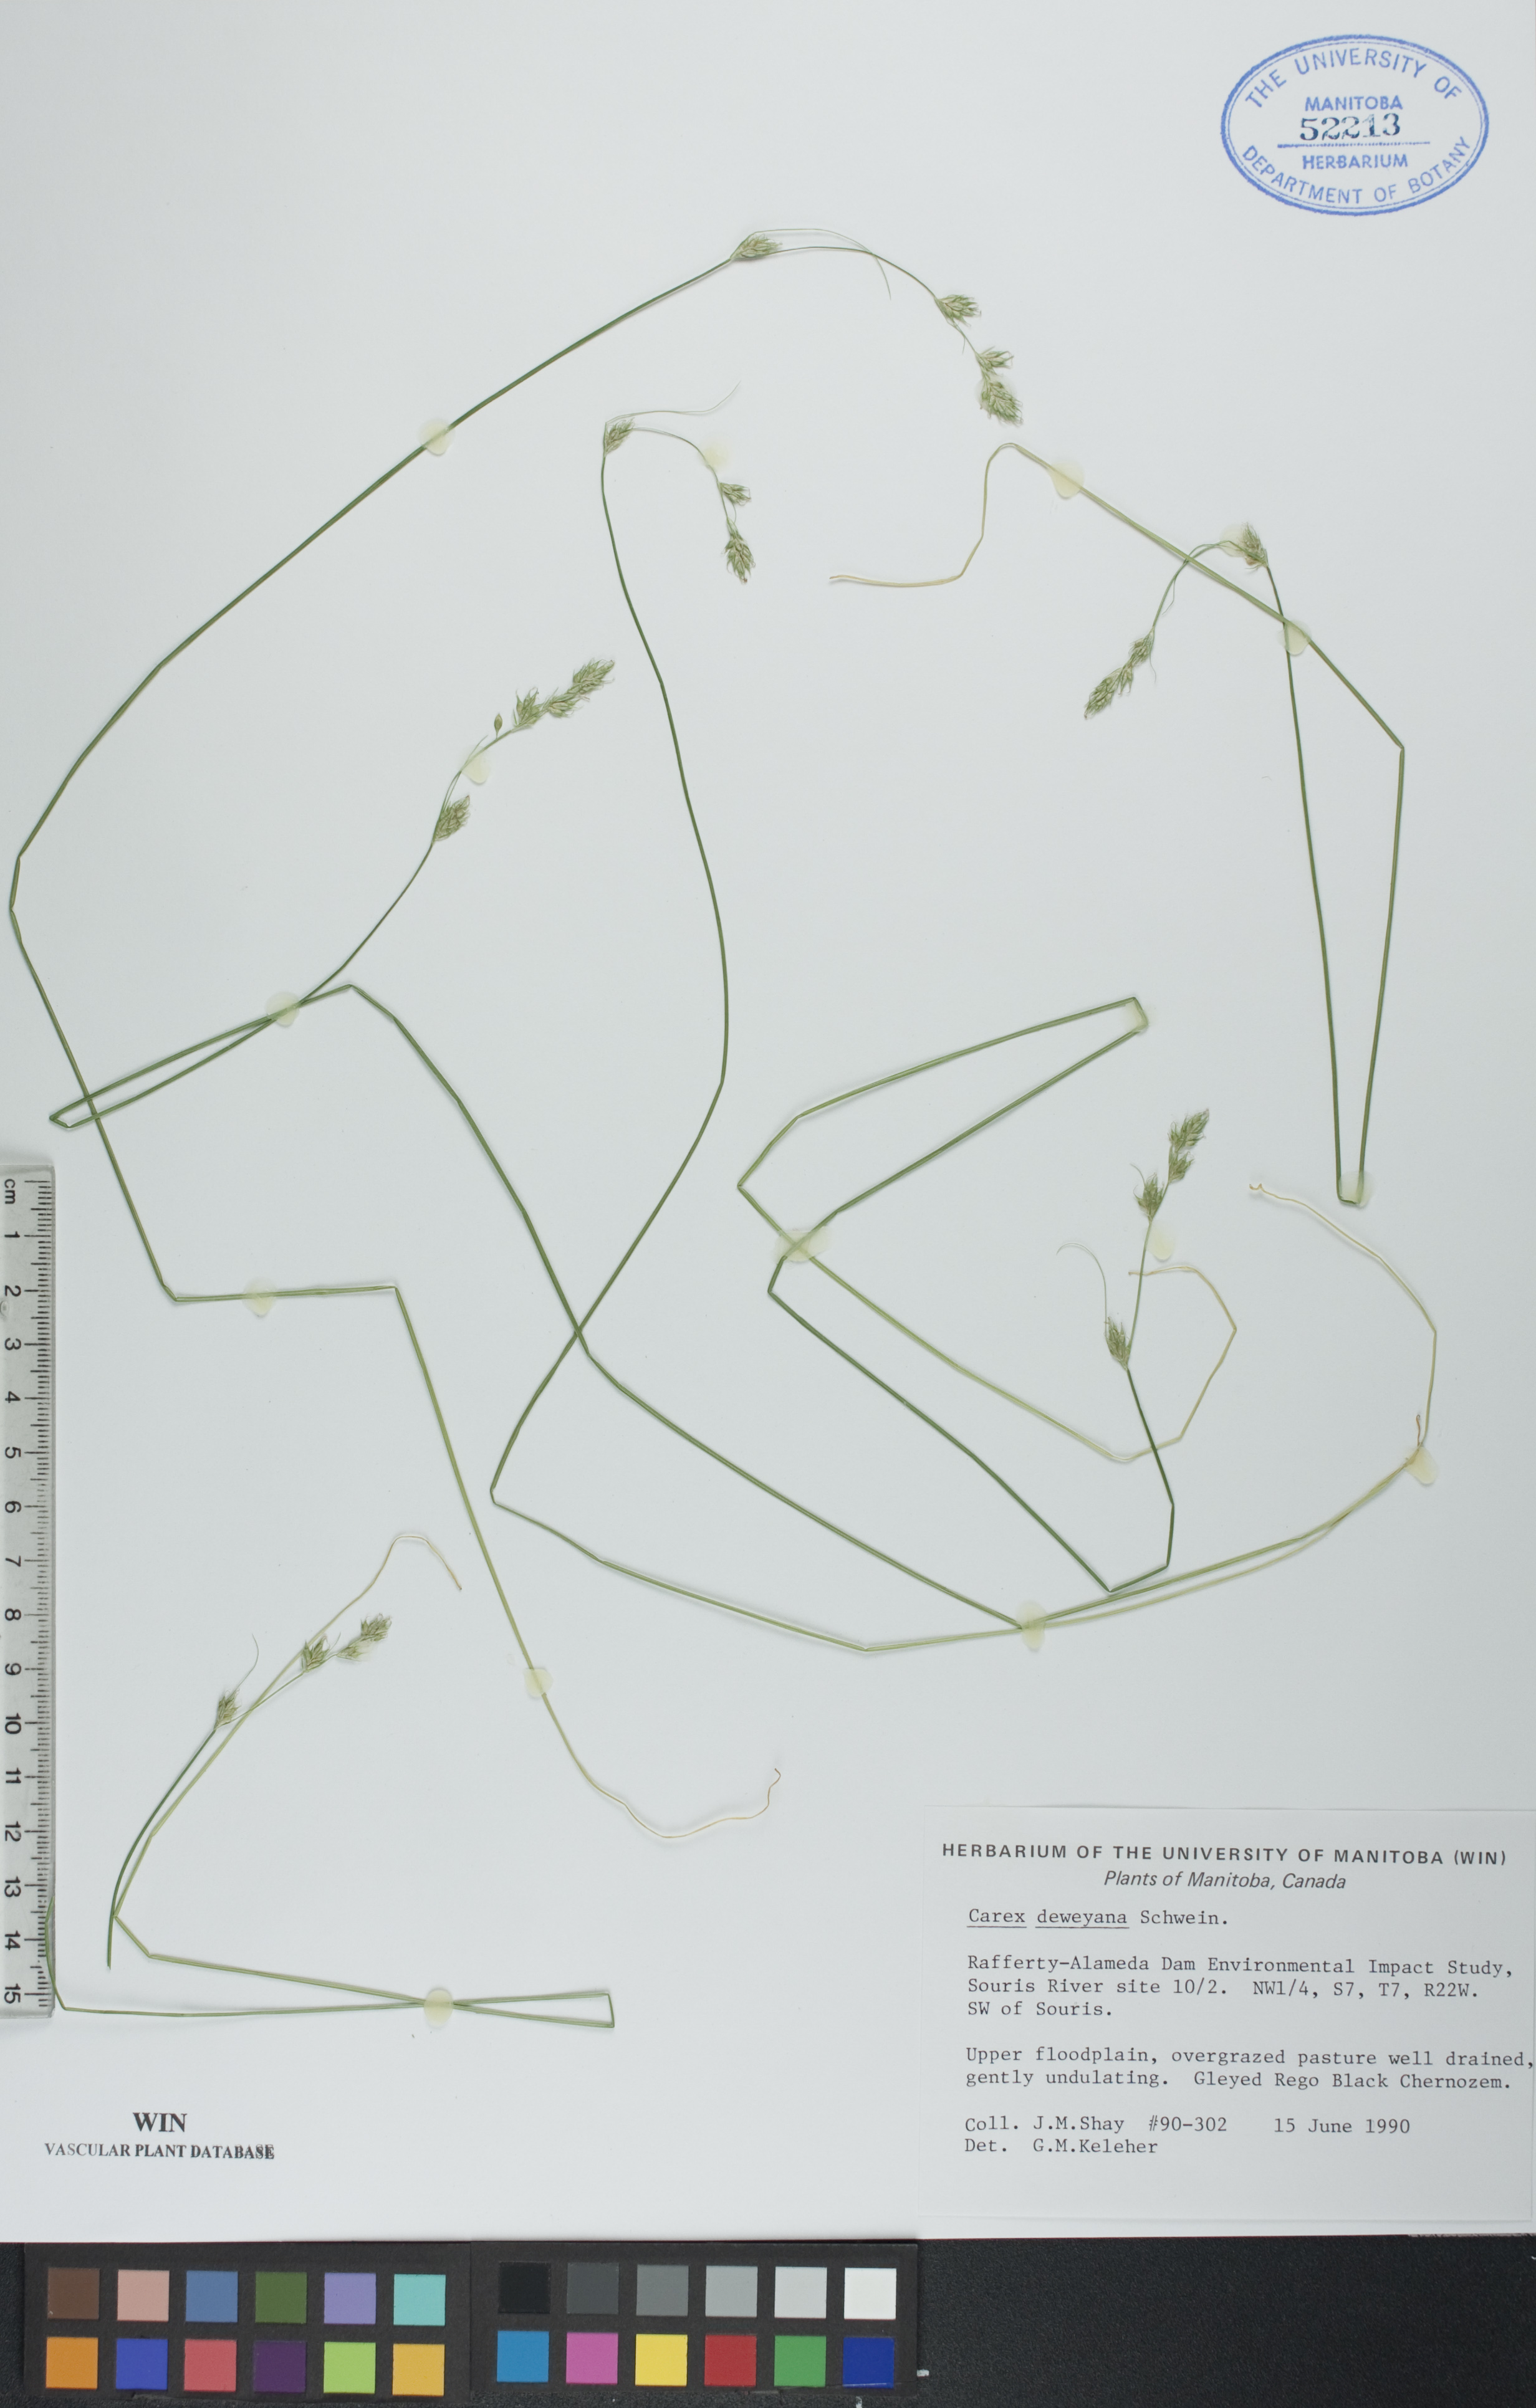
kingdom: Plantae
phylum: Tracheophyta
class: Liliopsida
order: Poales
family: Cyperaceae
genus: Carex
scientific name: Carex deweyana
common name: Dewey's sedge
